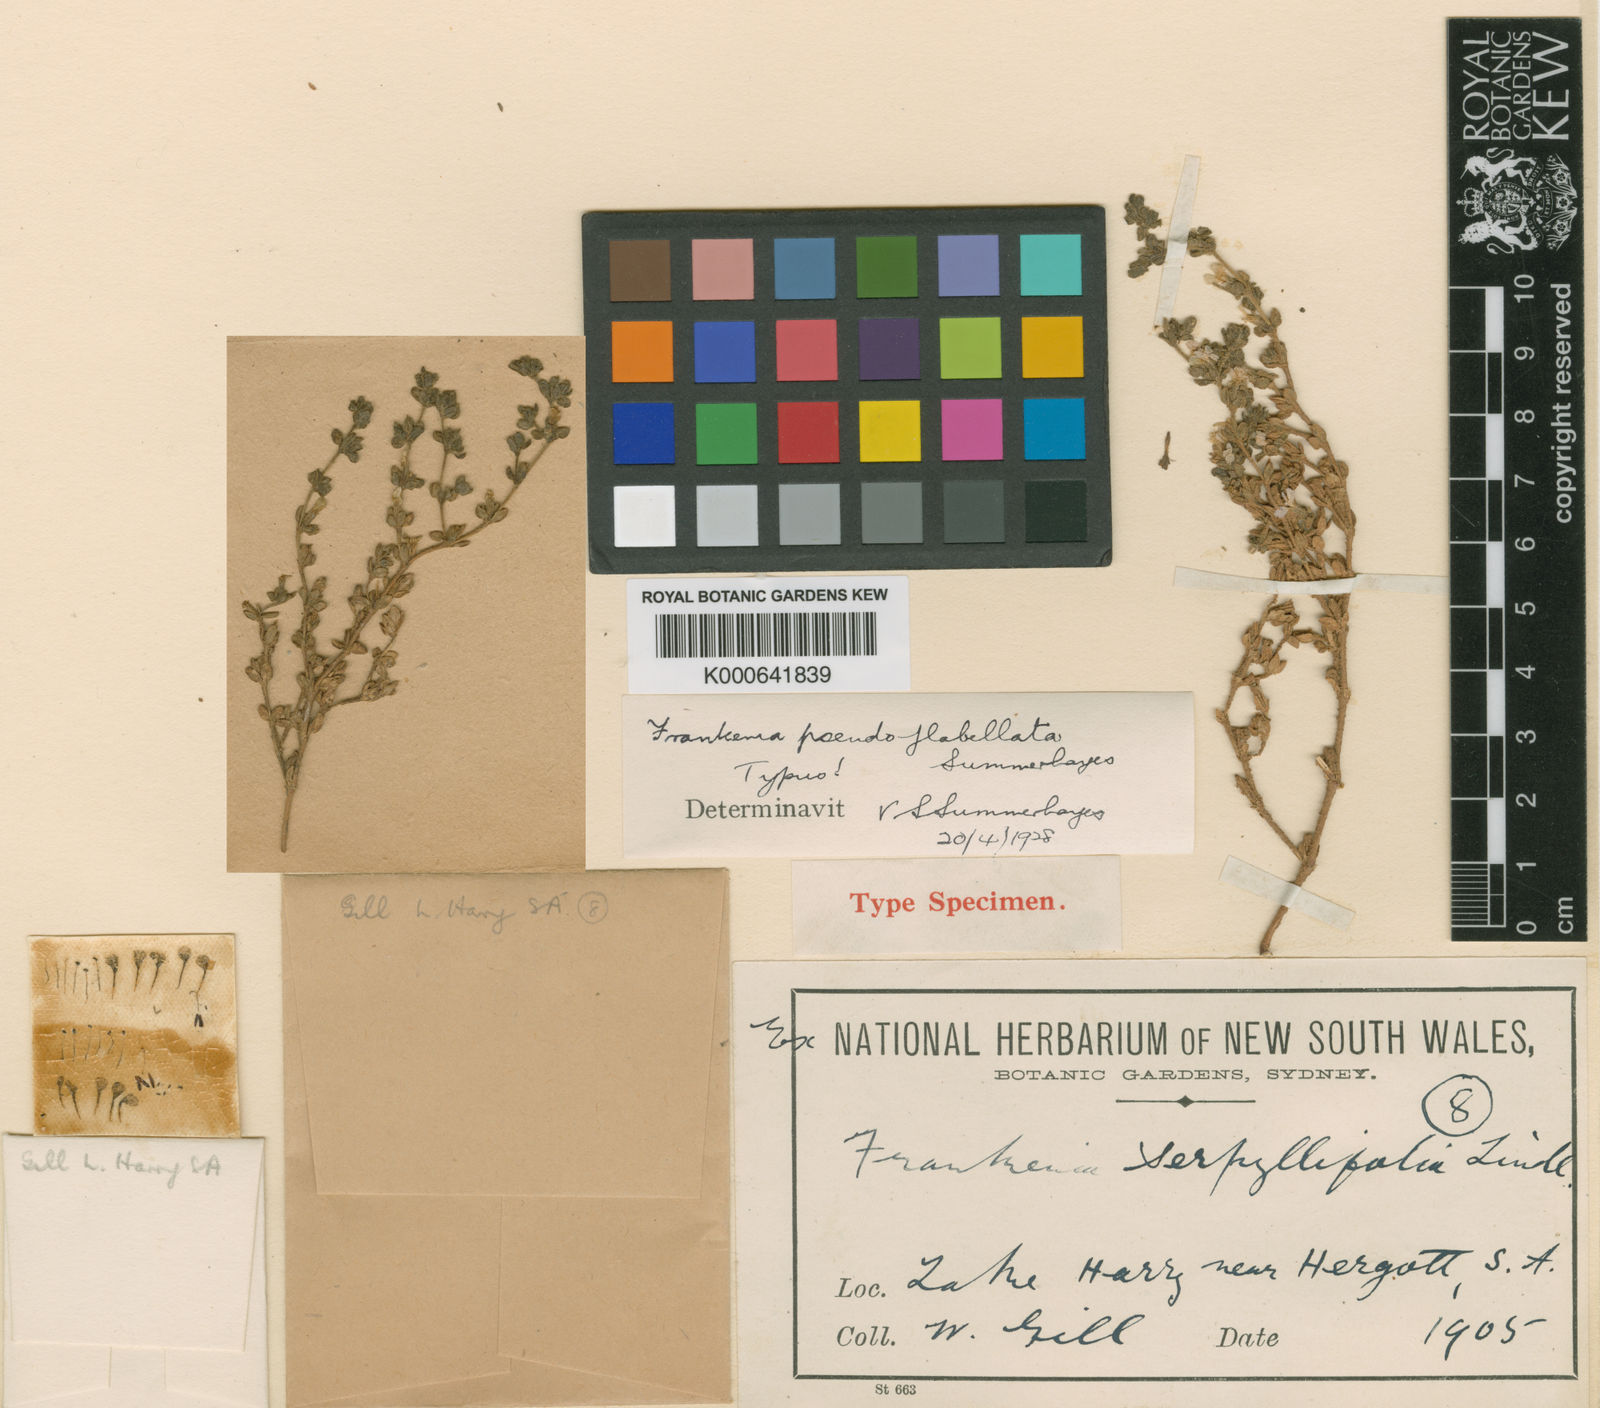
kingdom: Plantae
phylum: Tracheophyta
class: Magnoliopsida
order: Caryophyllales
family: Frankeniaceae
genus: Frankenia
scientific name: Frankenia pseudoflabellata
